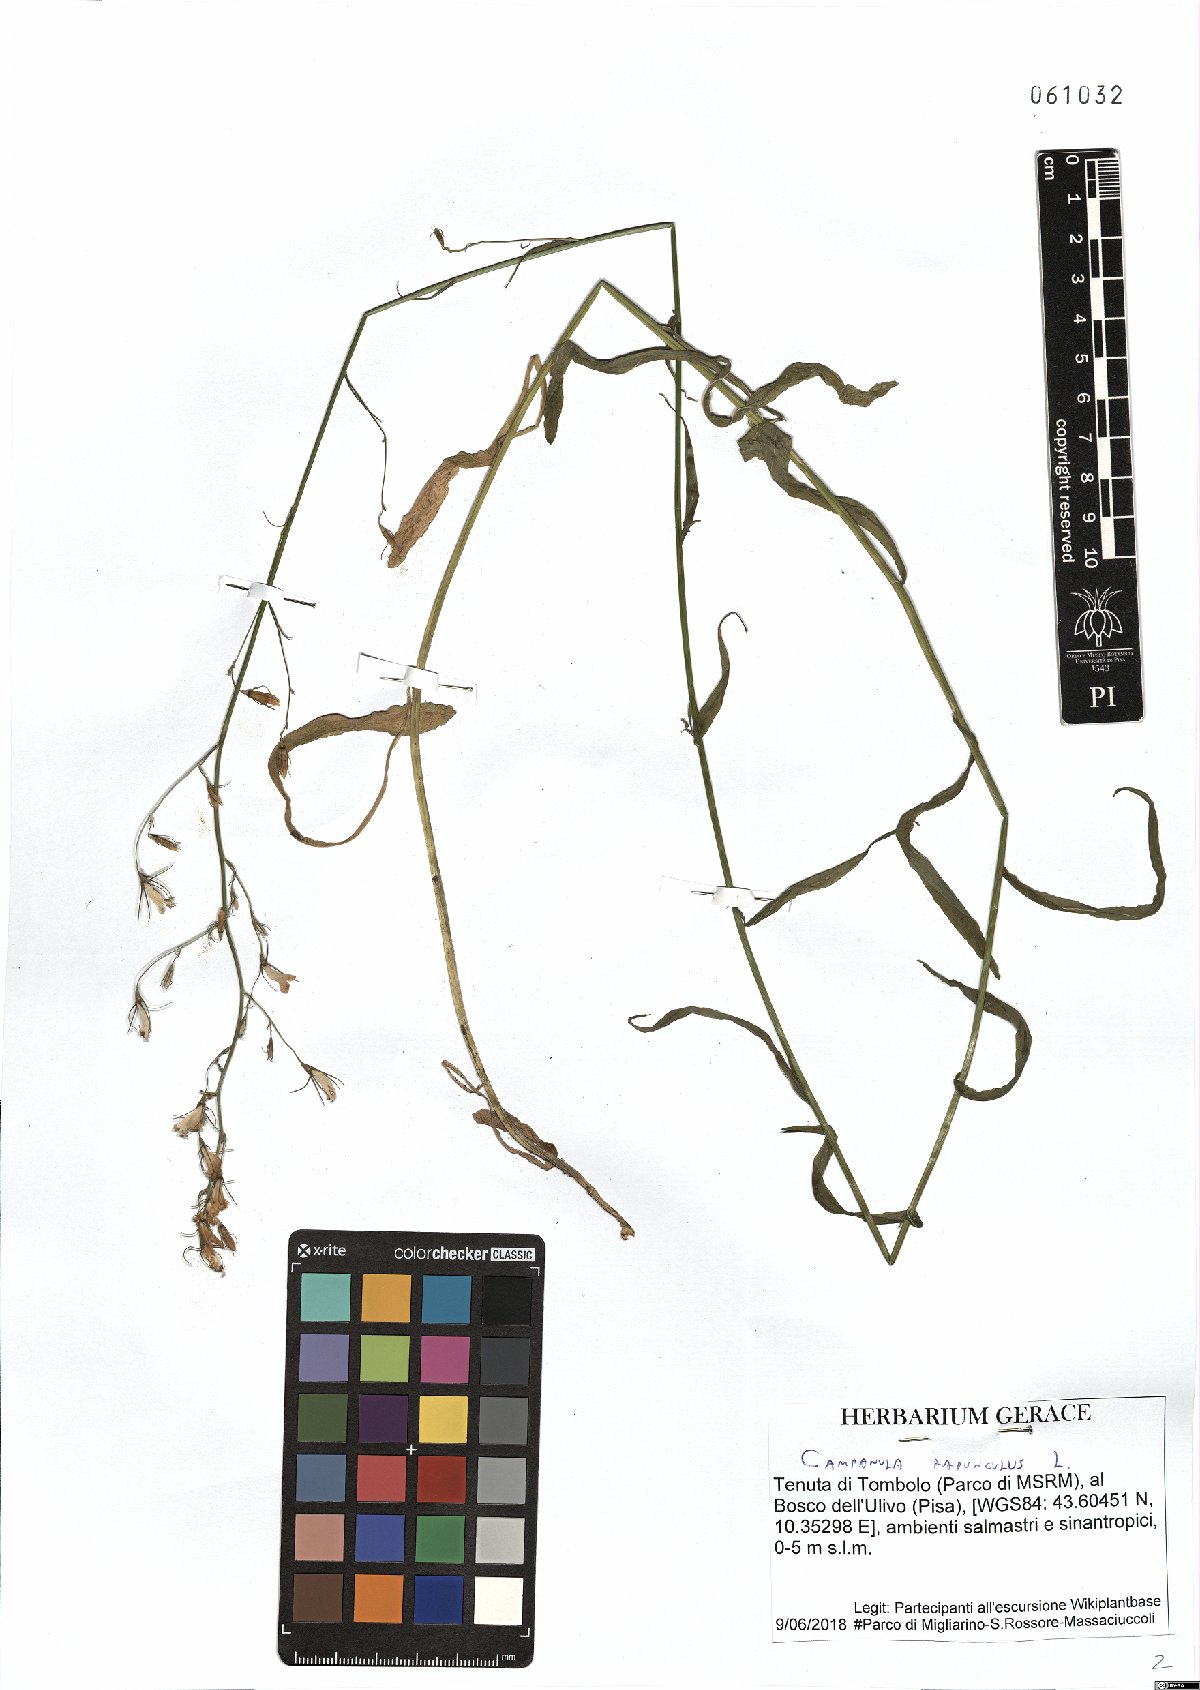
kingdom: Plantae
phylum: Tracheophyta
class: Magnoliopsida
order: Asterales
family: Campanulaceae
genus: Campanula
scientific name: Campanula rapunculus
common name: Rampion bellflower
